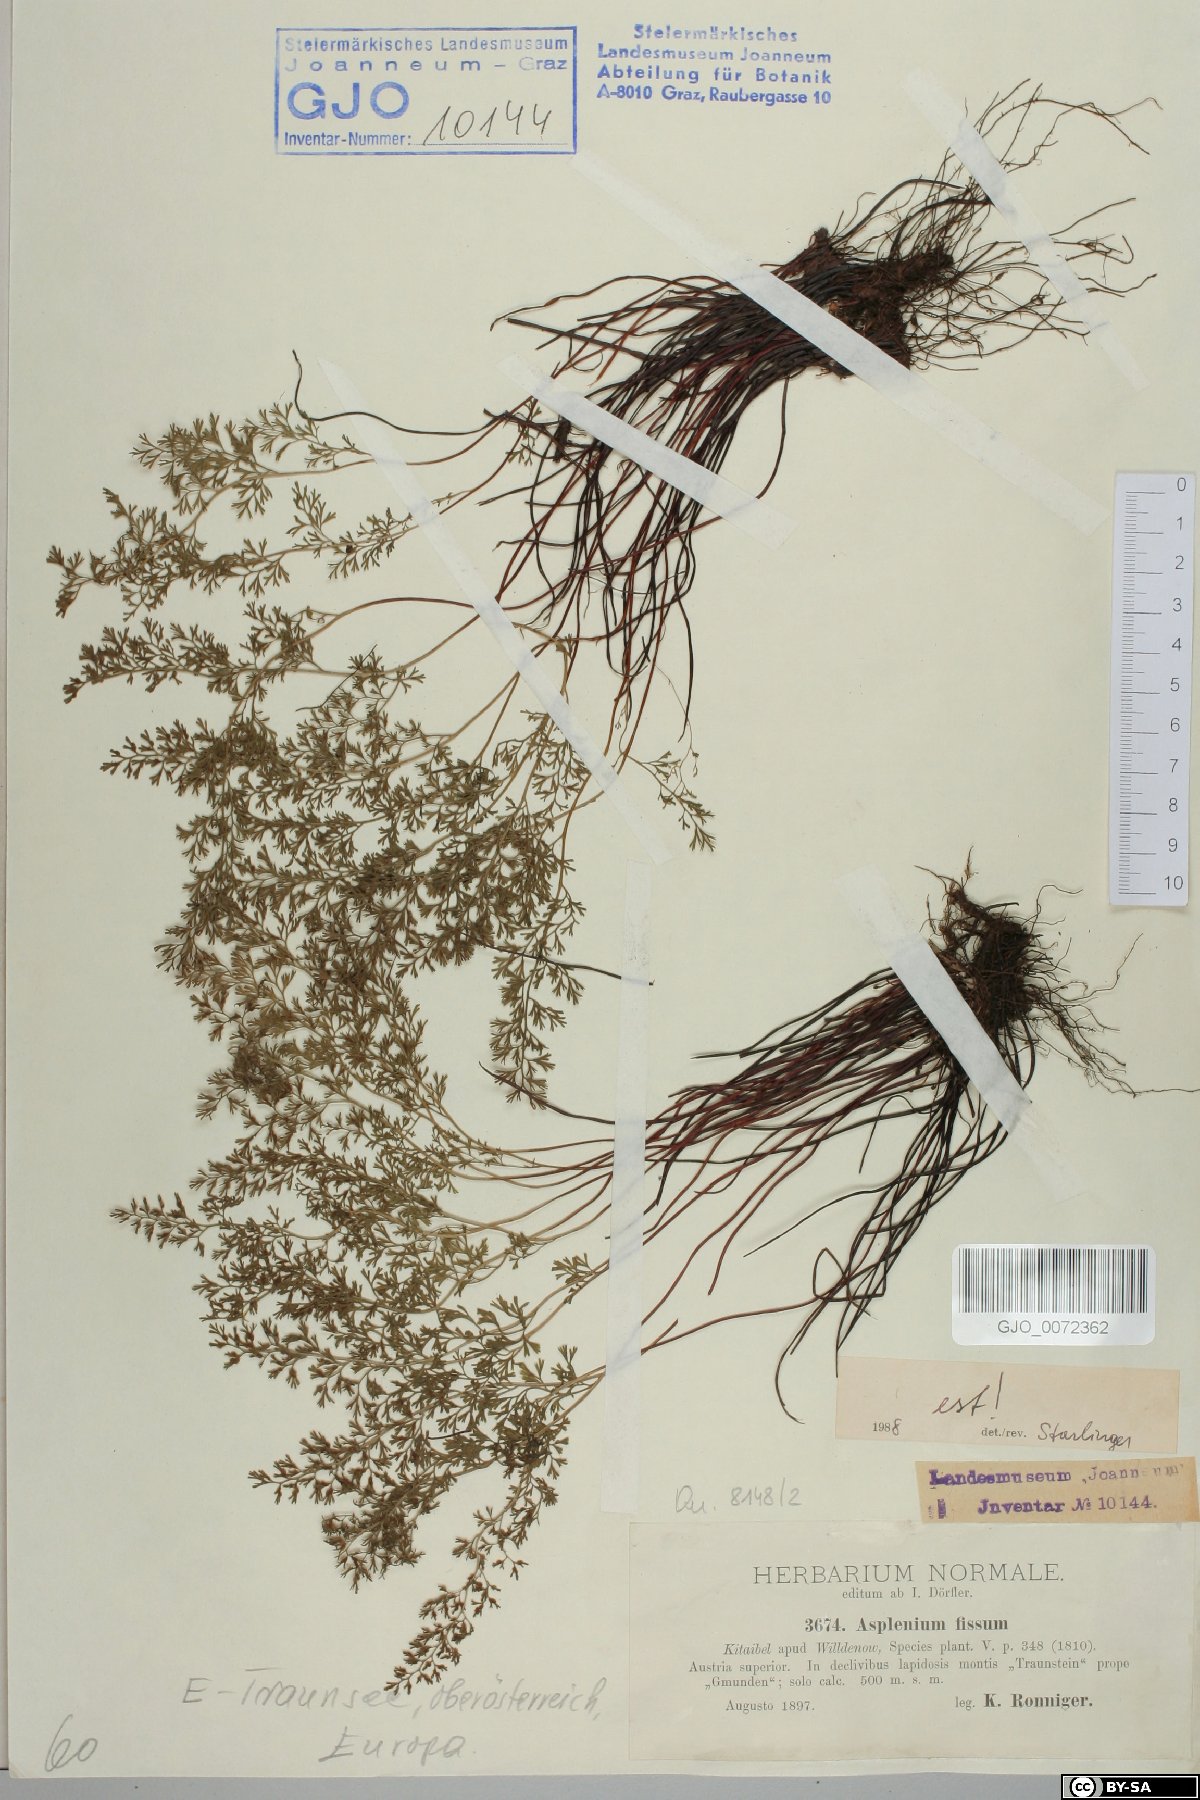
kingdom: Plantae
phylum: Tracheophyta
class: Polypodiopsida
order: Polypodiales
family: Aspleniaceae
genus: Asplenium
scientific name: Asplenium fissum
